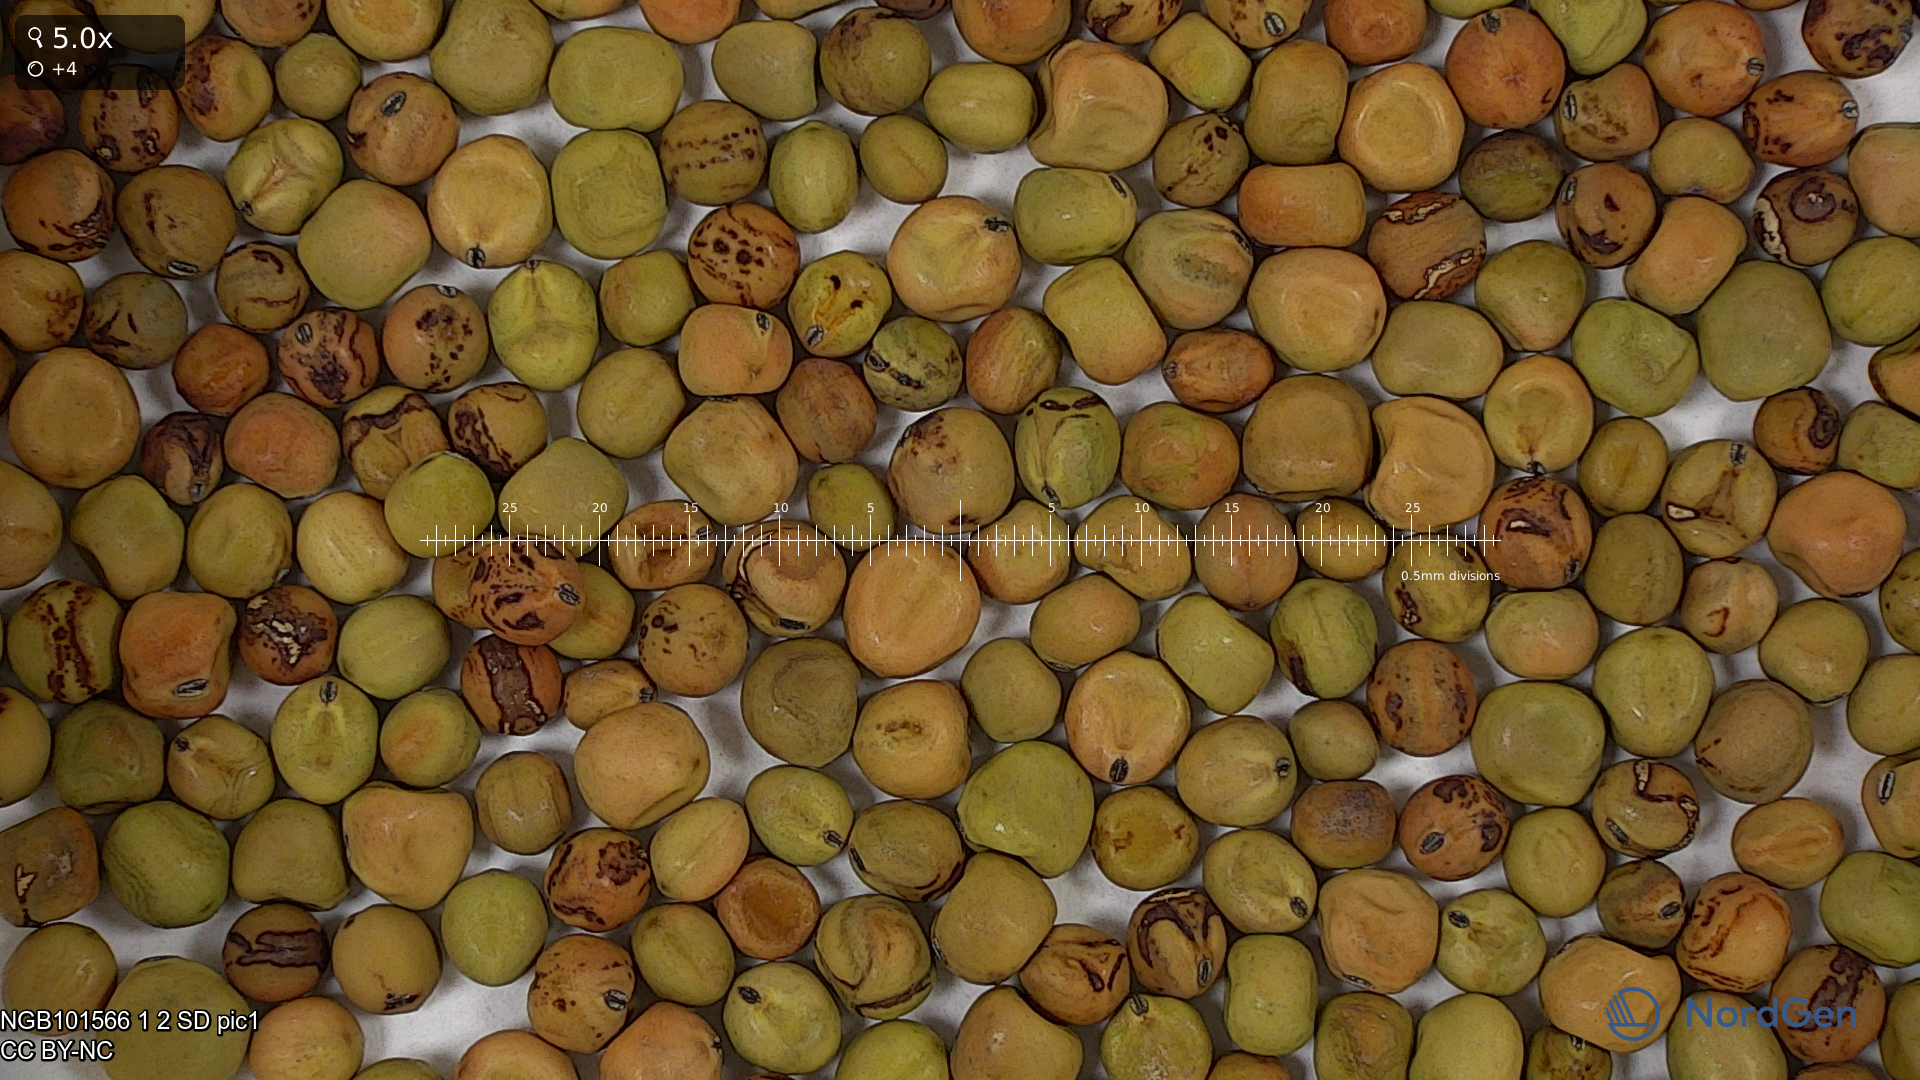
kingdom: Plantae
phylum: Tracheophyta
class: Magnoliopsida
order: Fabales
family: Fabaceae
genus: Lathyrus
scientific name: Lathyrus oleraceus
